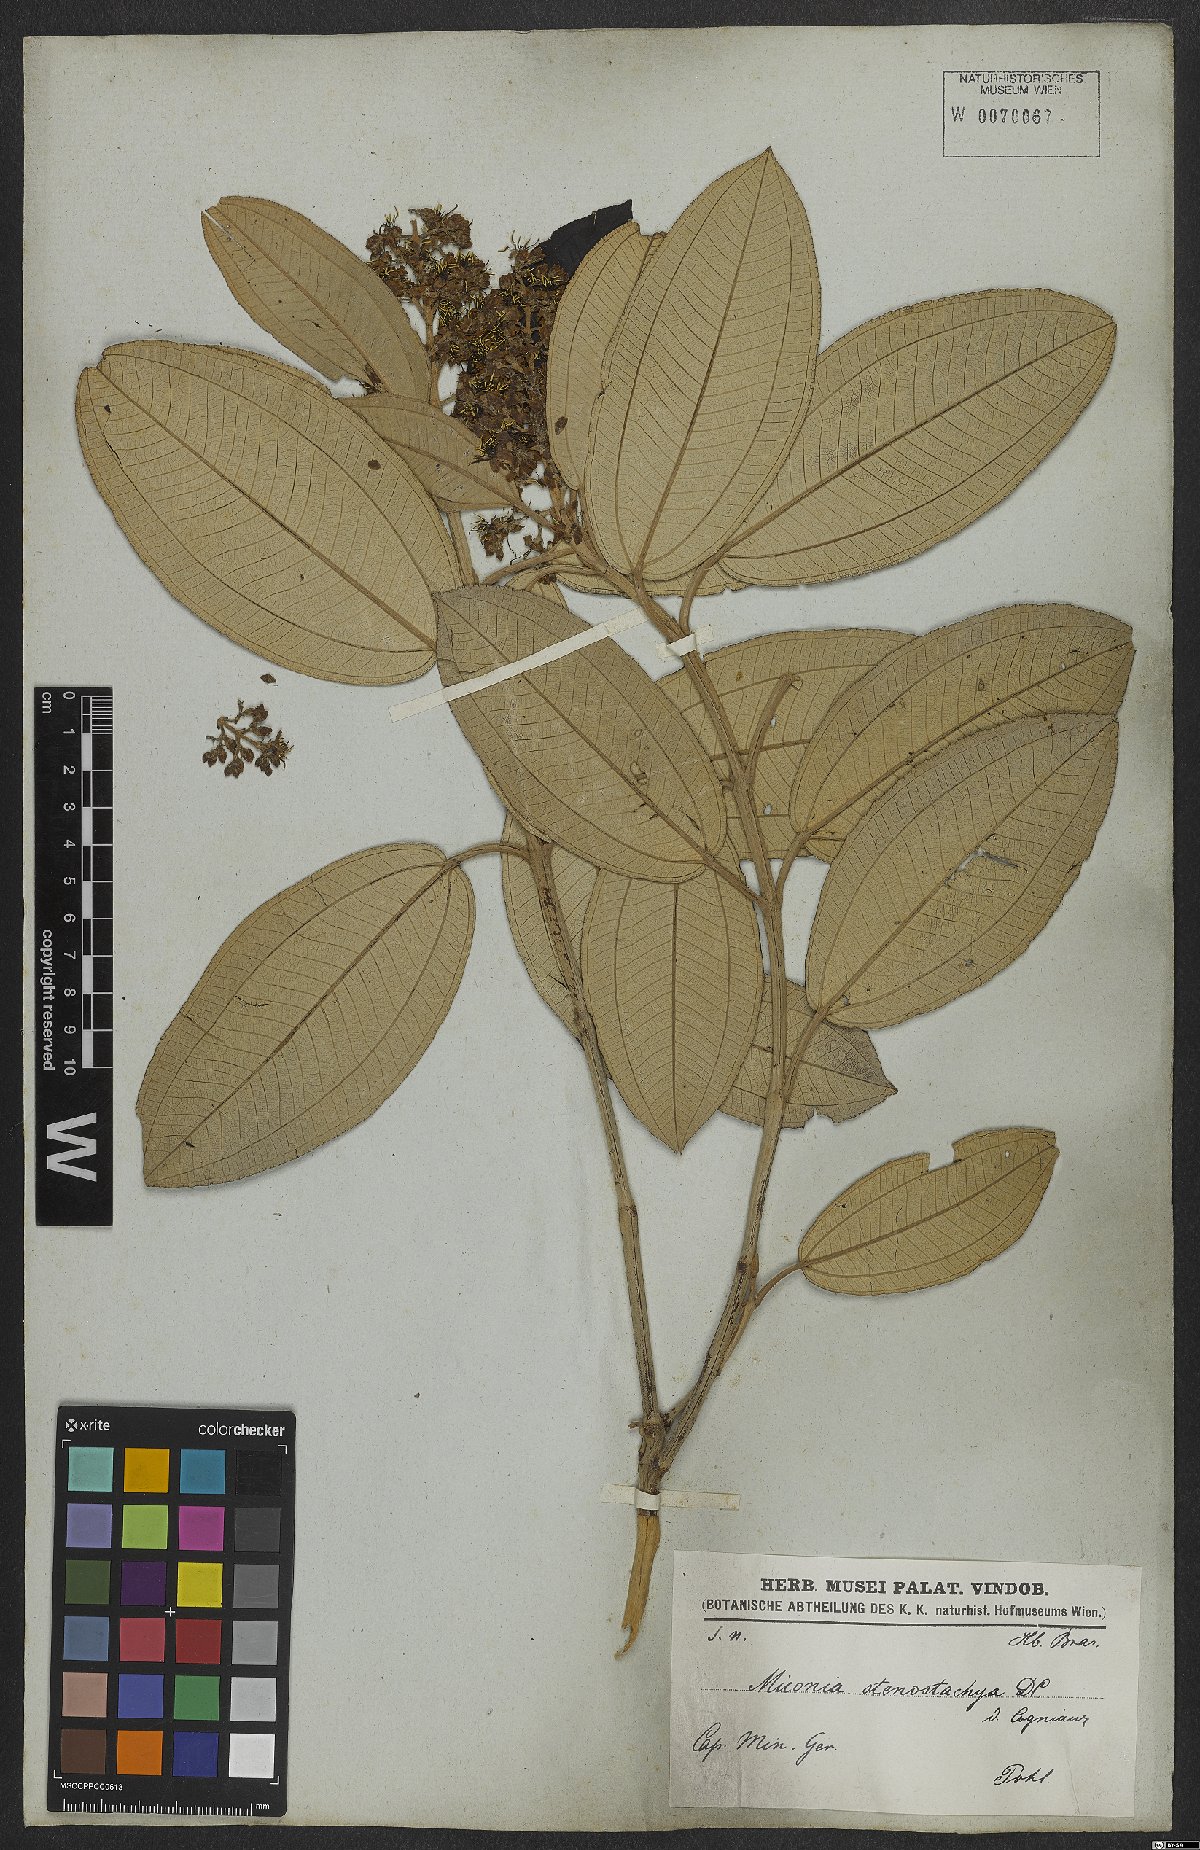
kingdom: Plantae
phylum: Tracheophyta
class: Magnoliopsida
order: Myrtales
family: Melastomataceae
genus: Miconia
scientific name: Miconia stenostachya
